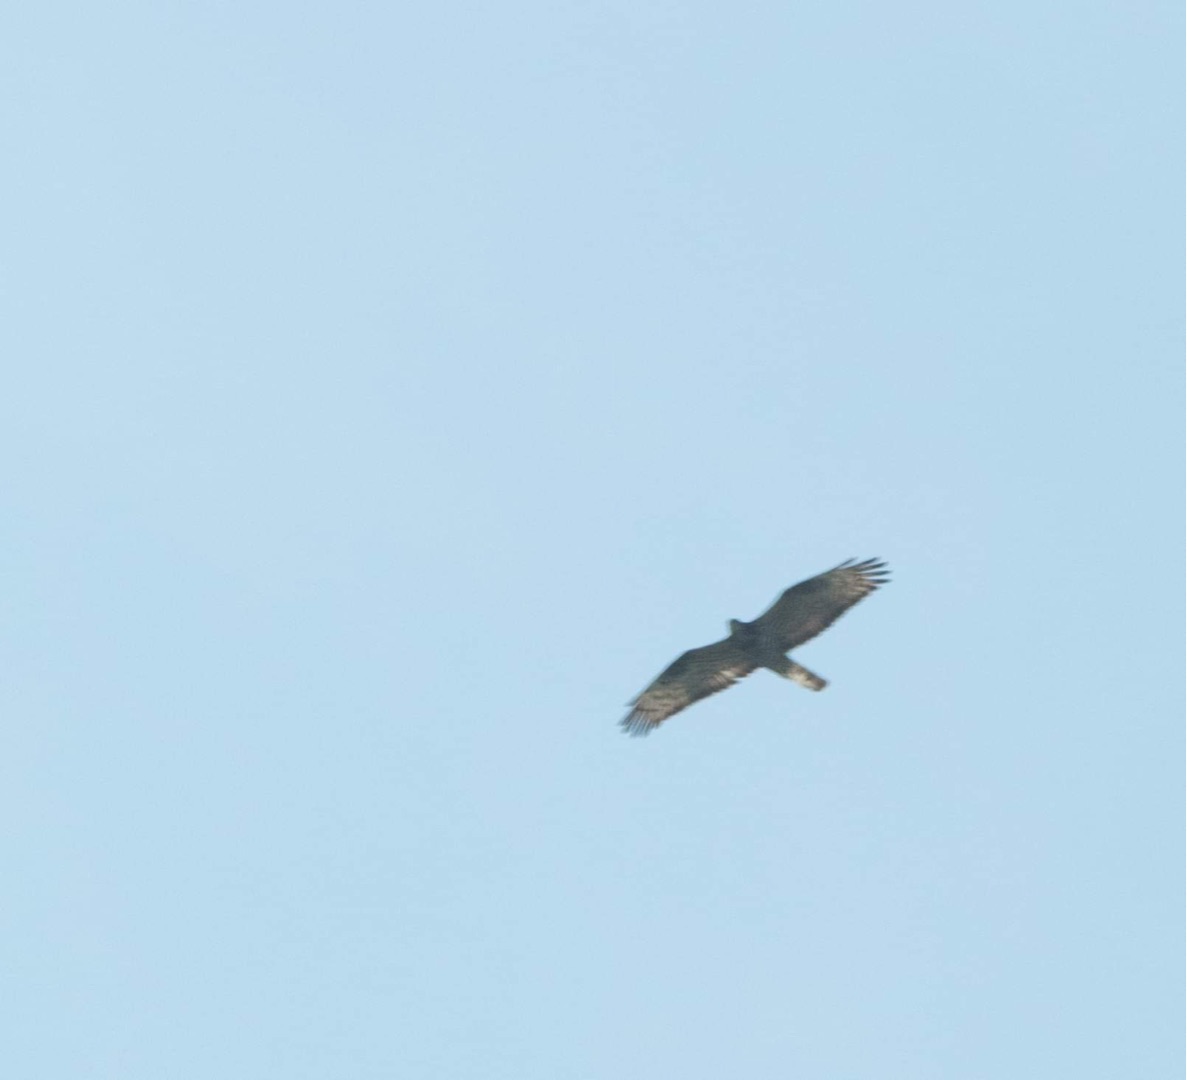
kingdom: Animalia
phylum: Chordata
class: Aves
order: Accipitriformes
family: Accipitridae
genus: Pernis
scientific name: Pernis apivorus
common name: Hvepsevåge
